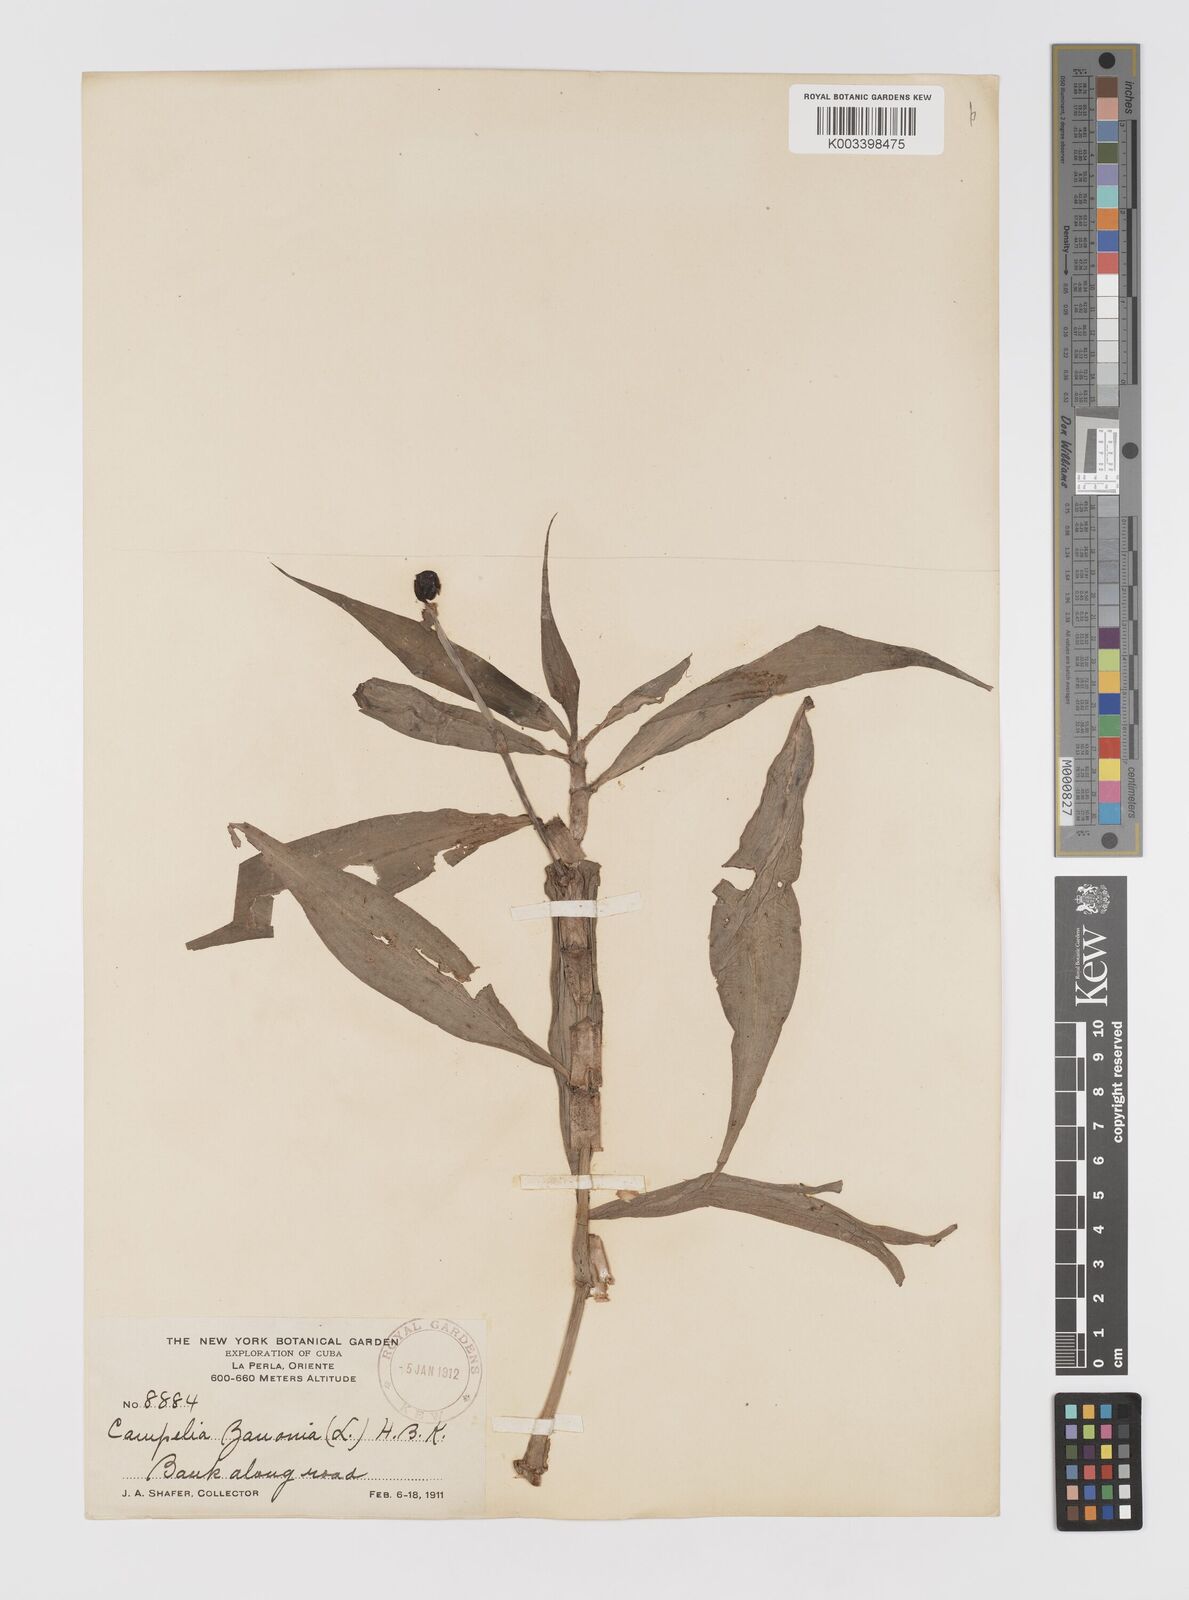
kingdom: Plantae
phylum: Tracheophyta
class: Liliopsida
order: Commelinales
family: Commelinaceae
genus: Tradescantia
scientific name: Tradescantia zanonia
